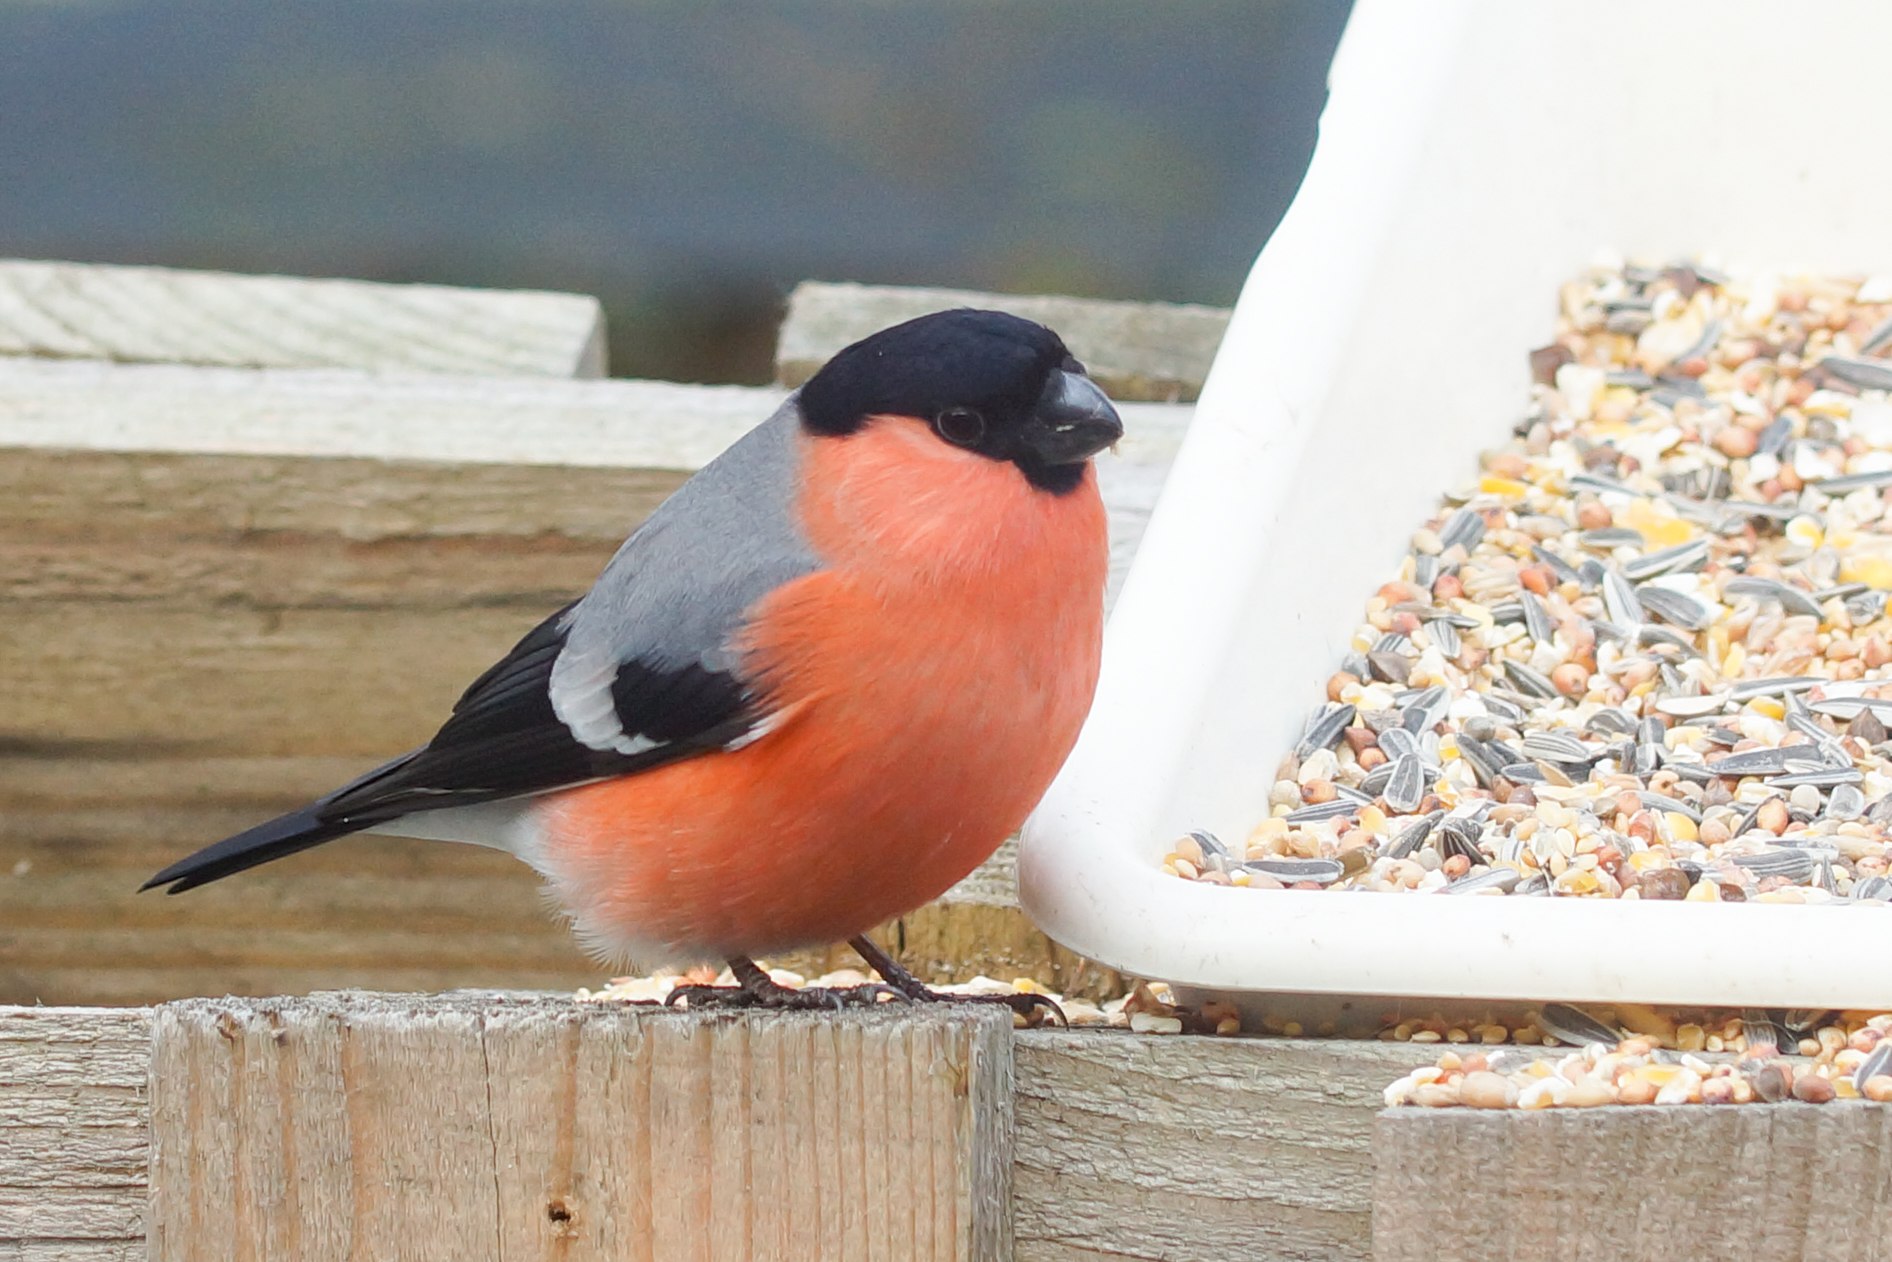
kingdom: Animalia
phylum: Chordata
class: Aves
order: Passeriformes
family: Fringillidae
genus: Pyrrhula
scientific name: Pyrrhula pyrrhula
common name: Dompap
